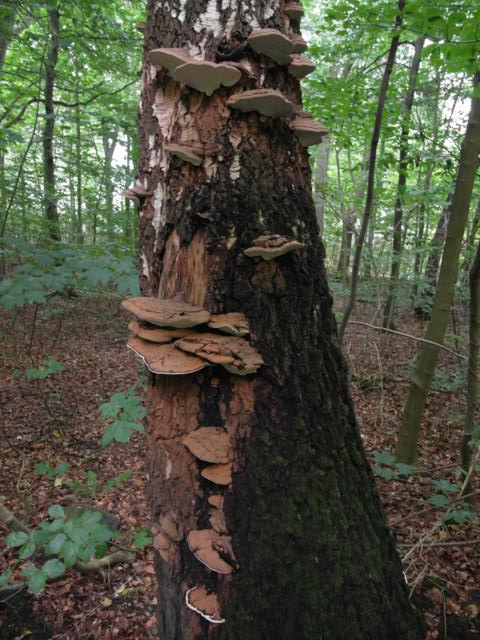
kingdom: Fungi
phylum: Basidiomycota
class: Agaricomycetes
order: Polyporales
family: Polyporaceae
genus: Ganoderma
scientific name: Ganoderma applanatum
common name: flad lakporesvamp
